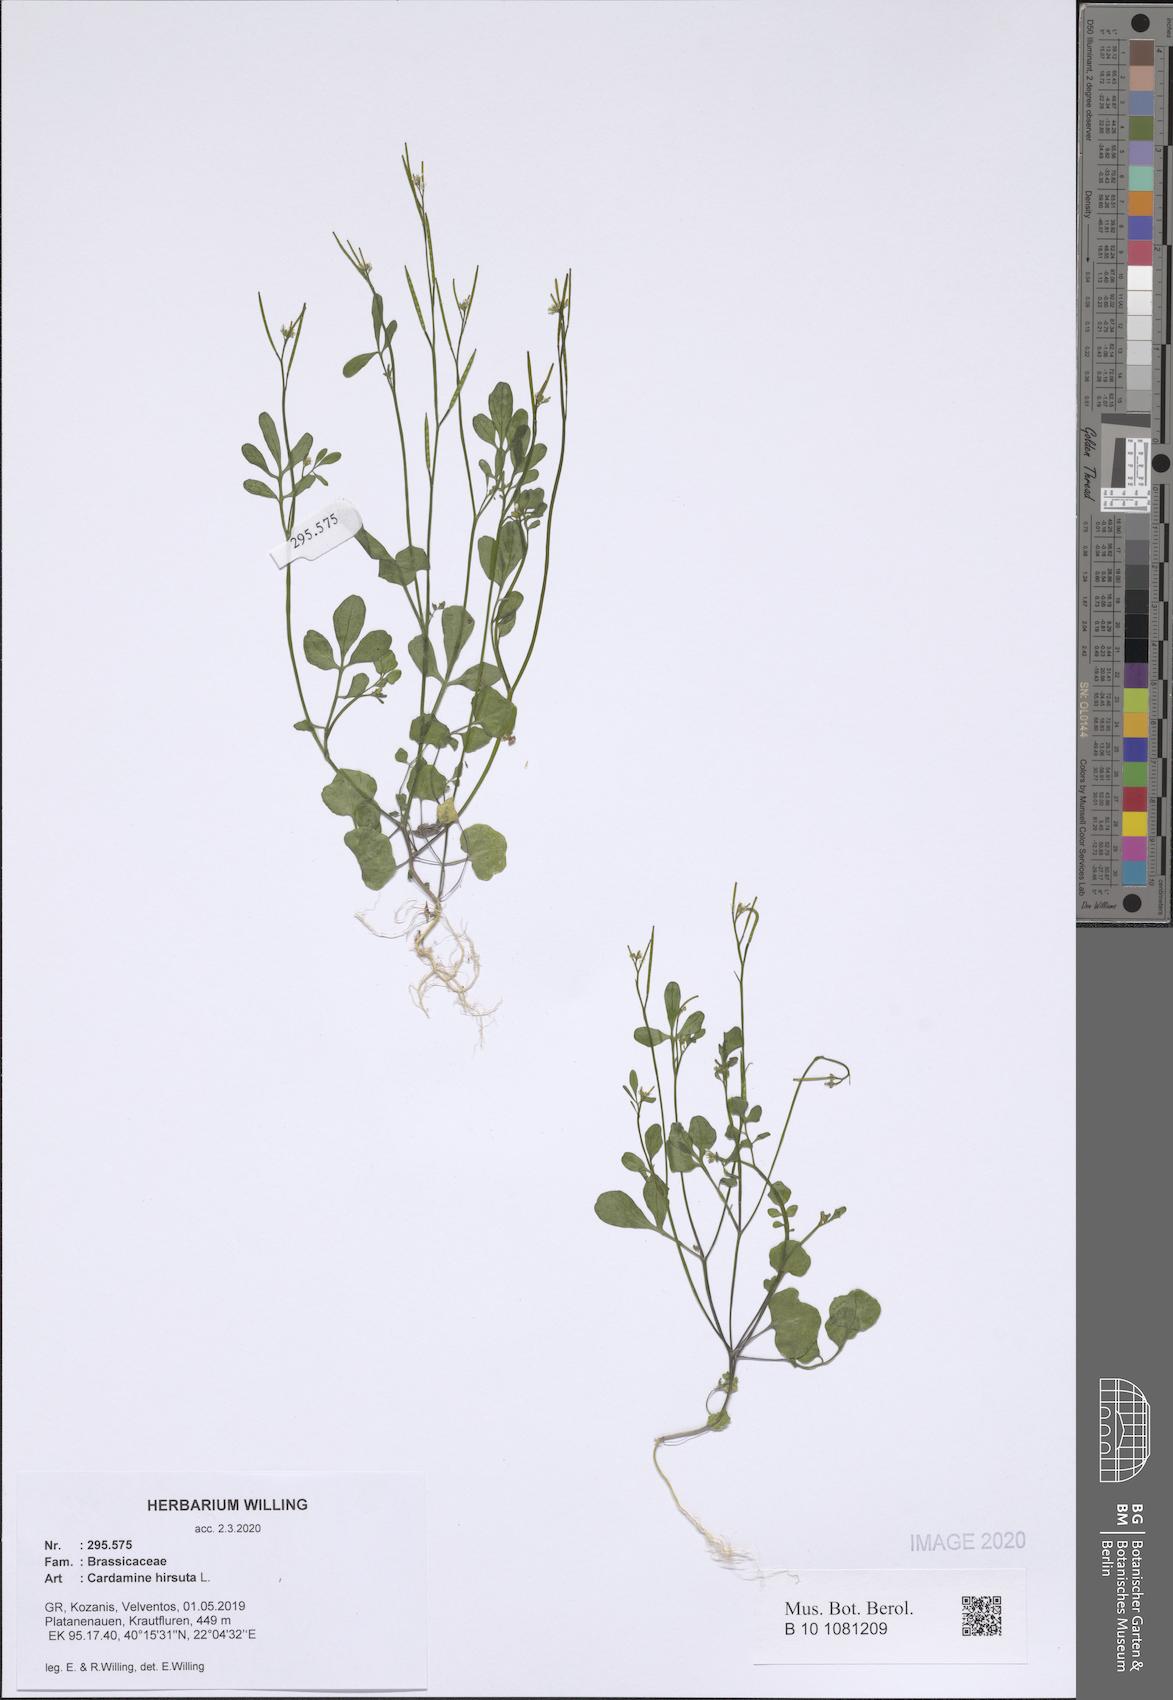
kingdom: Plantae
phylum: Tracheophyta
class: Magnoliopsida
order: Brassicales
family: Brassicaceae
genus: Cardamine
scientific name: Cardamine hirsuta
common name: Hairy bittercress
